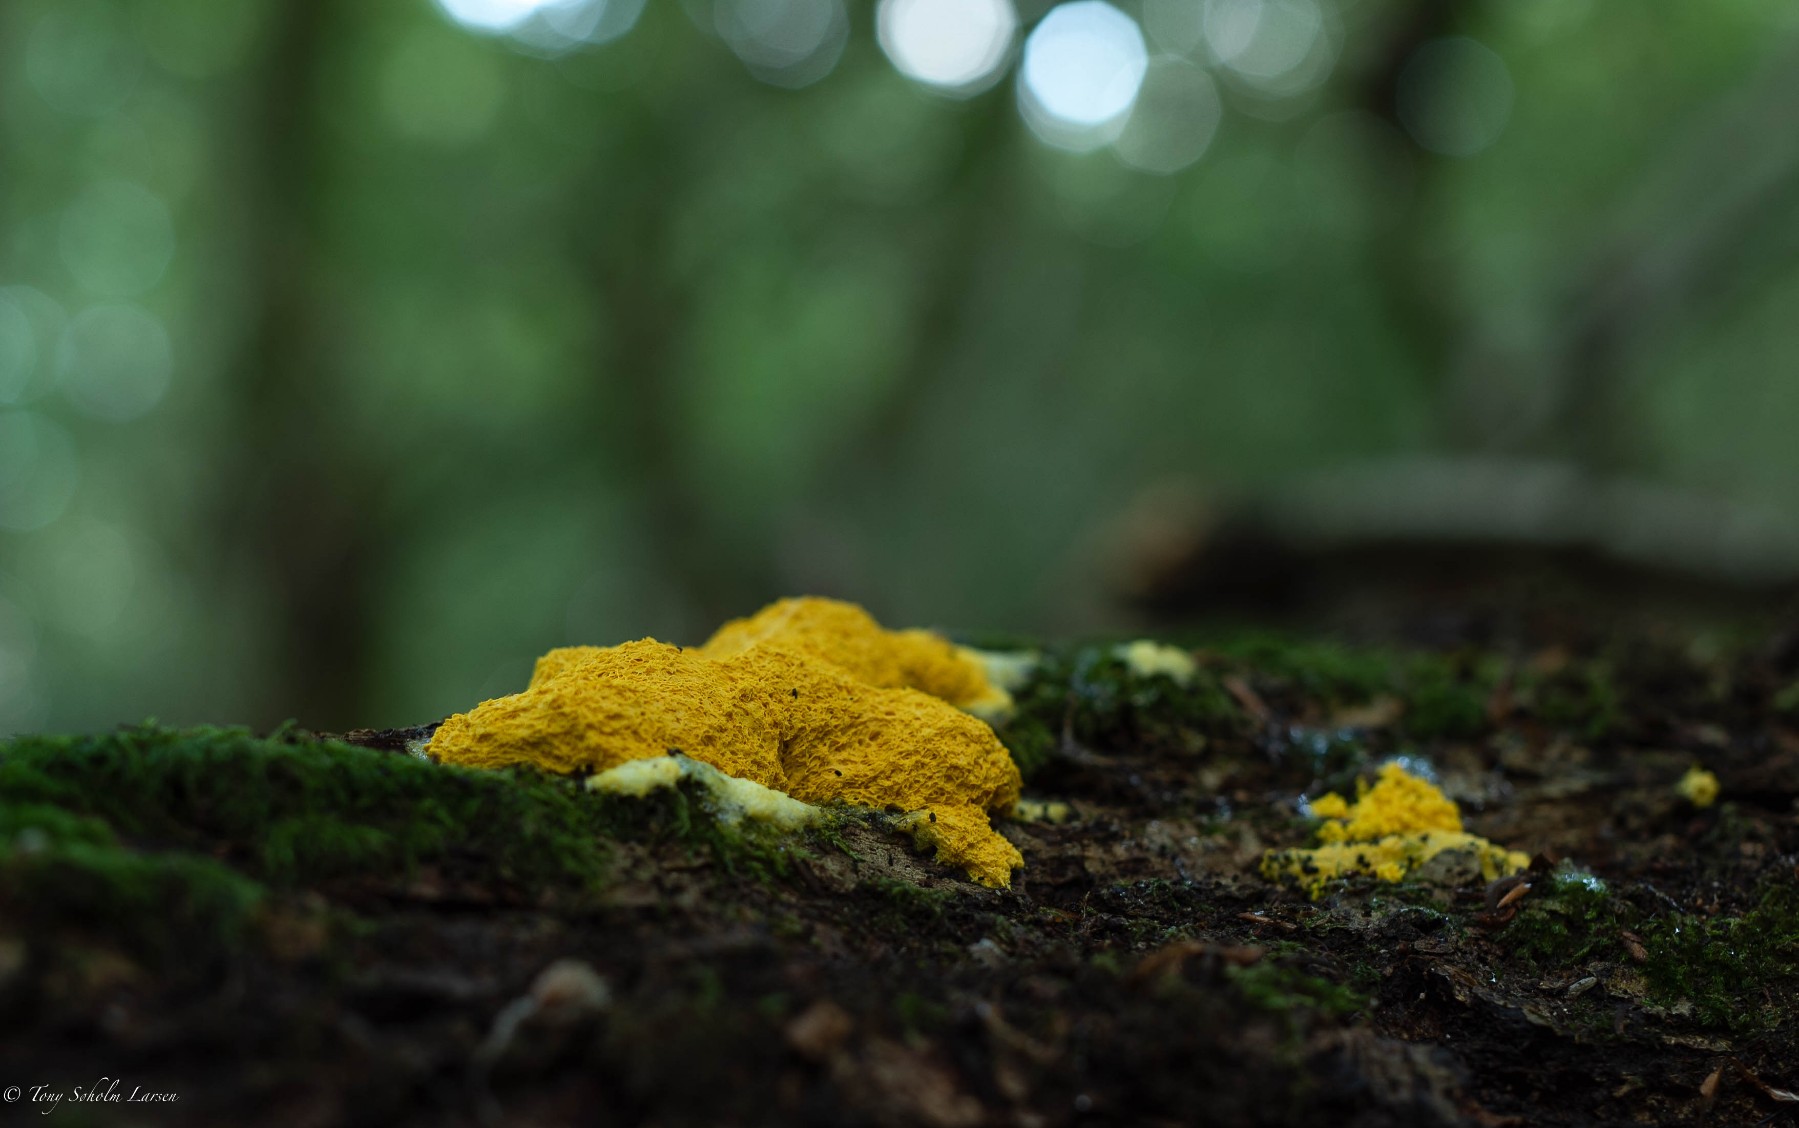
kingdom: Protozoa
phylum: Mycetozoa
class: Myxomycetes
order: Physarales
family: Physaraceae
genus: Fuligo
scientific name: Fuligo septica
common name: gul troldsmør
